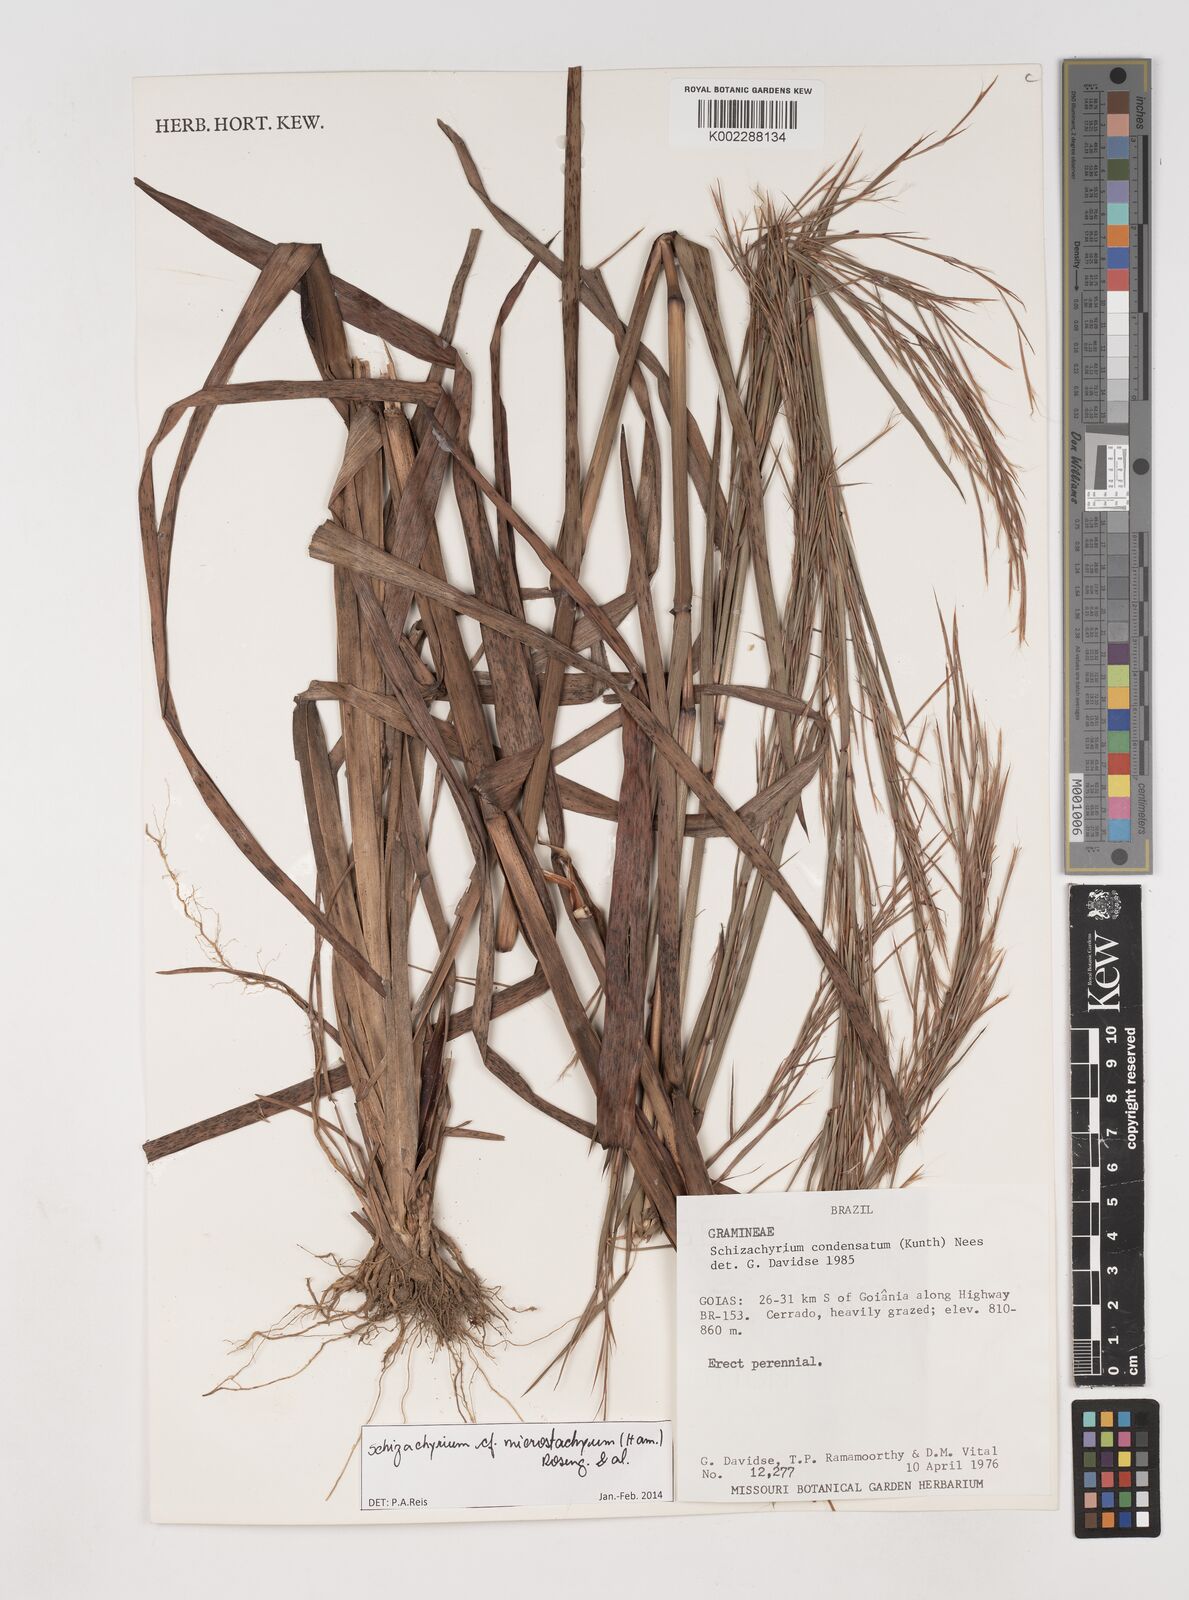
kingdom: Plantae
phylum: Tracheophyta
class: Liliopsida
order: Poales
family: Poaceae
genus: Schizachyrium
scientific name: Schizachyrium microstachyum
